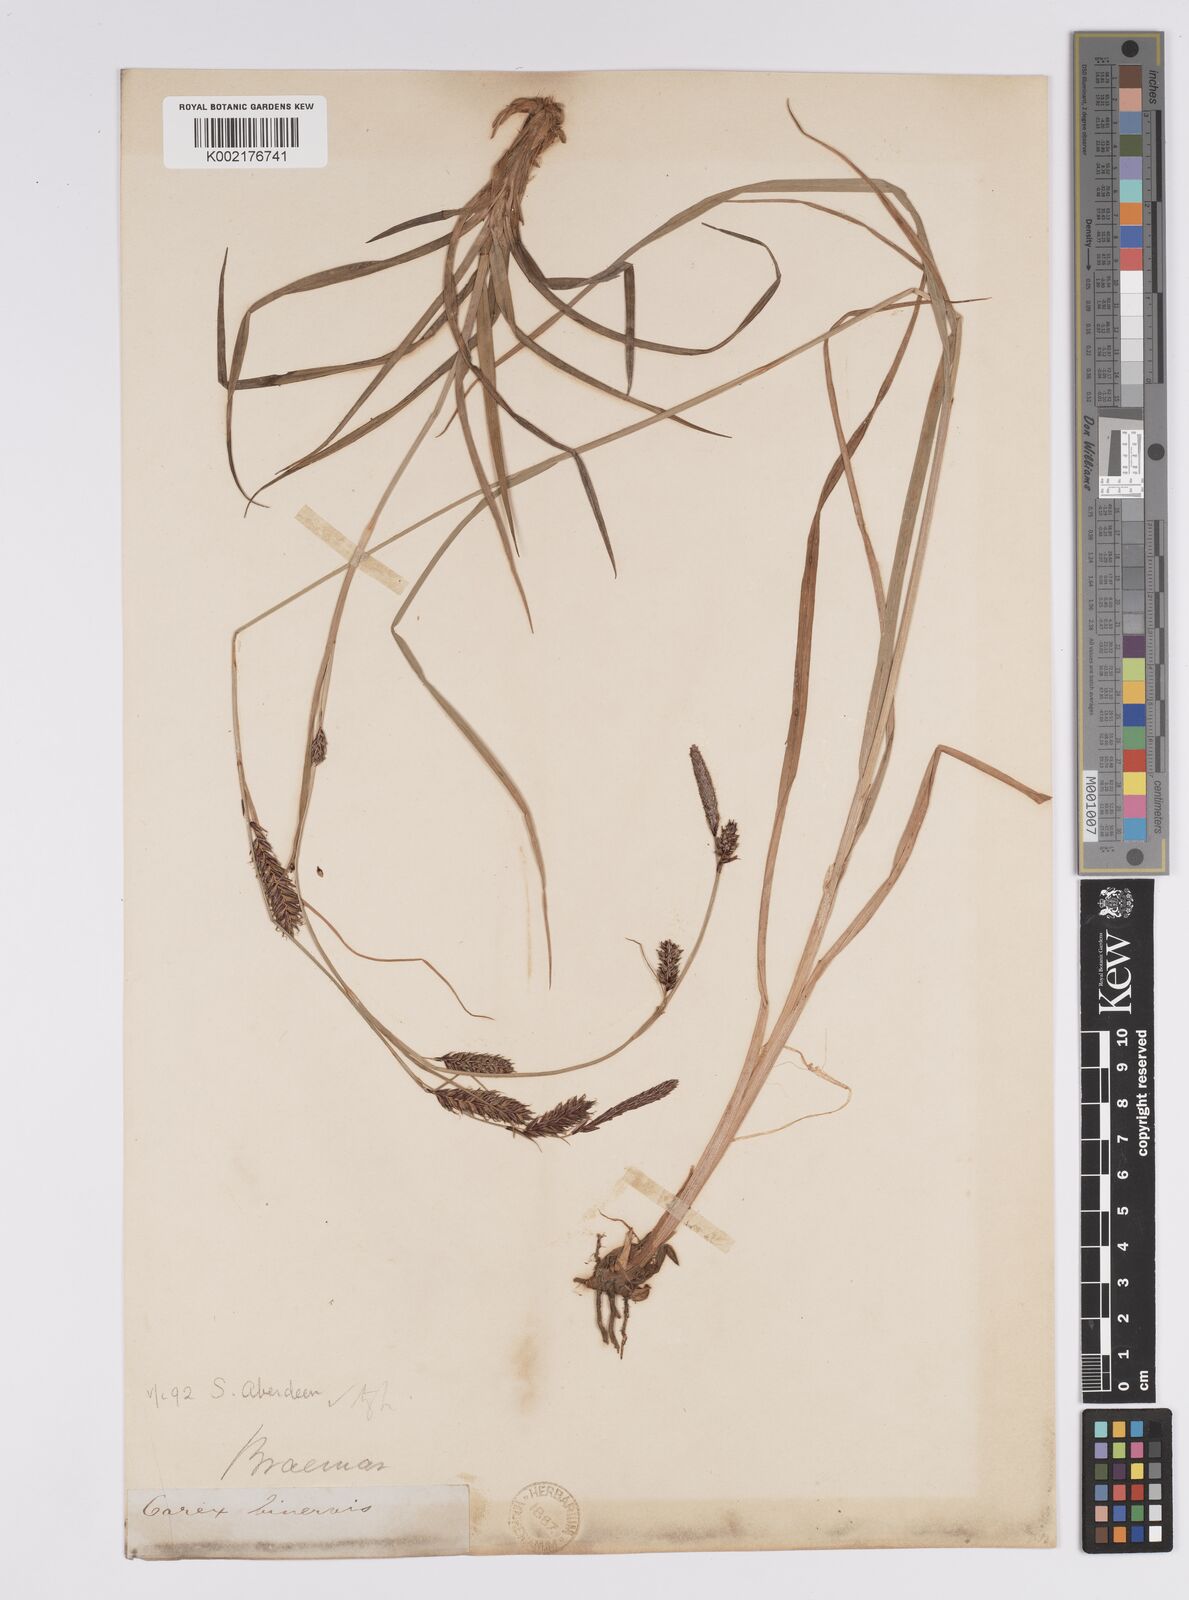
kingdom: Plantae
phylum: Tracheophyta
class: Liliopsida
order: Poales
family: Cyperaceae
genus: Carex
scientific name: Carex binervis
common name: Green-ribbed sedge
